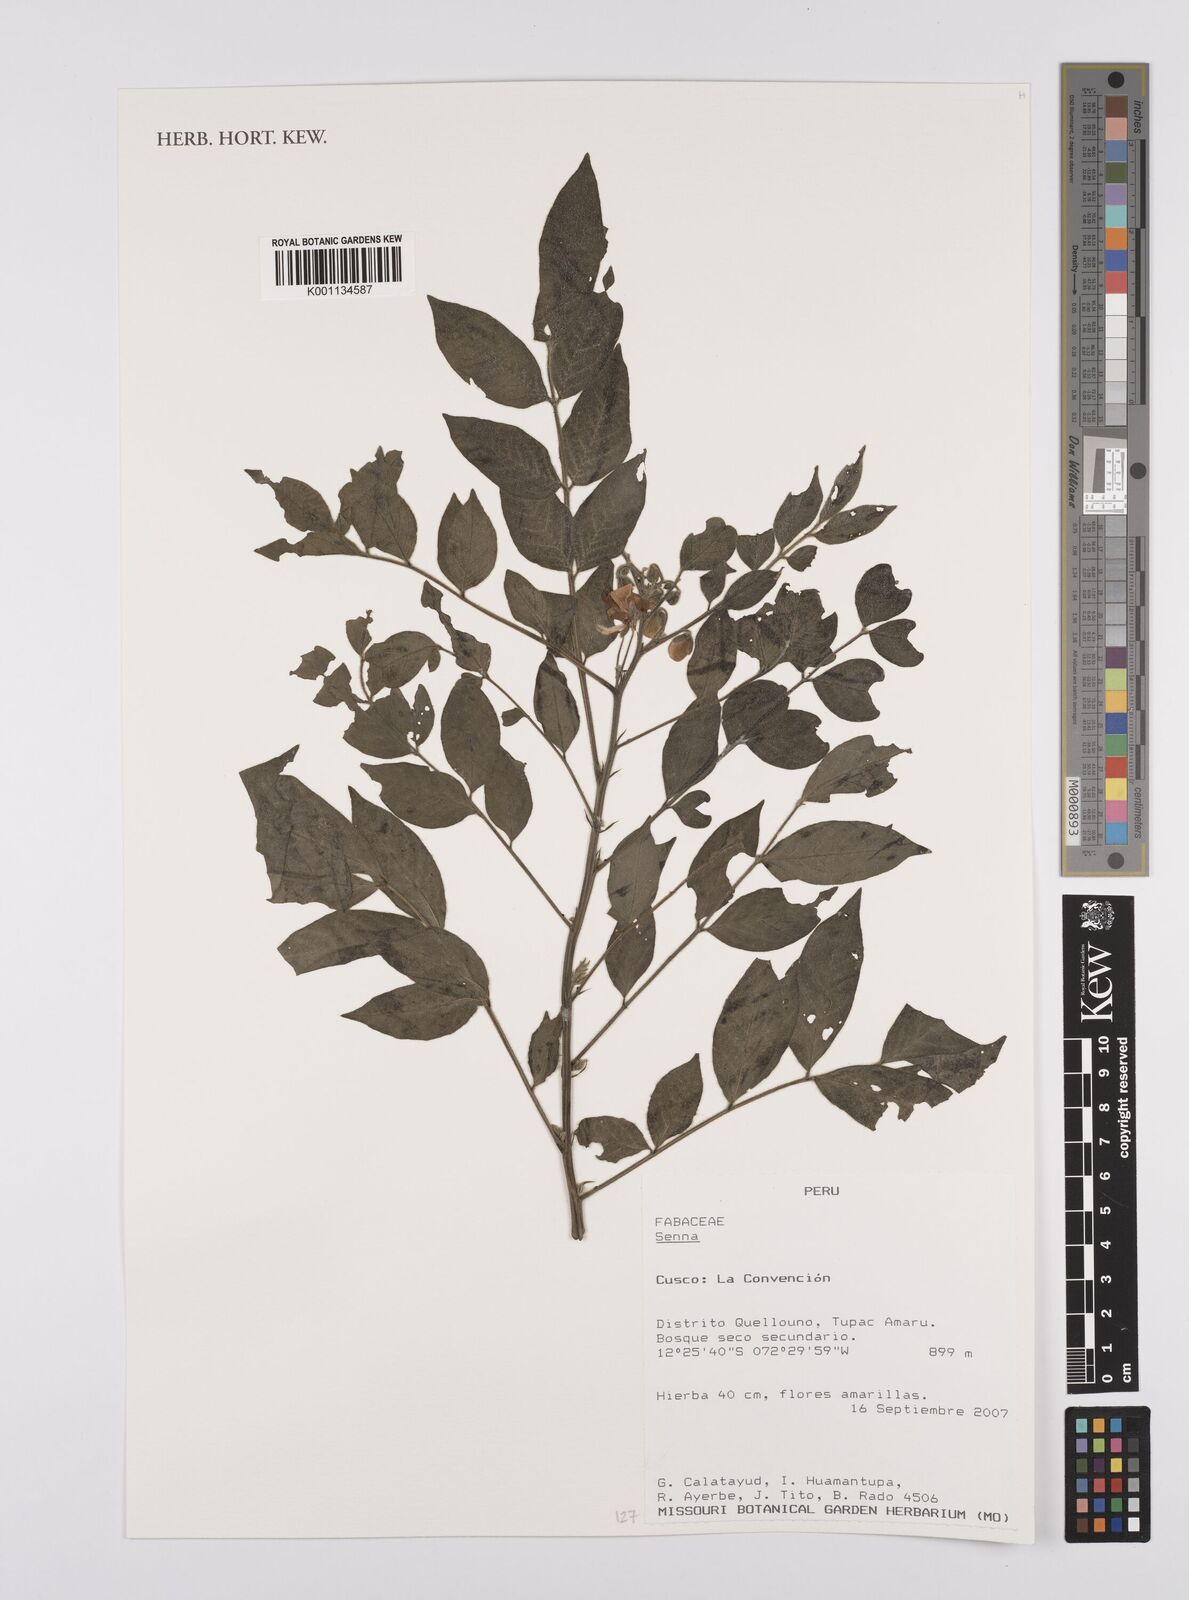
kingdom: Plantae
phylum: Tracheophyta
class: Magnoliopsida
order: Fabales
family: Fabaceae
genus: Senna
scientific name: Senna
